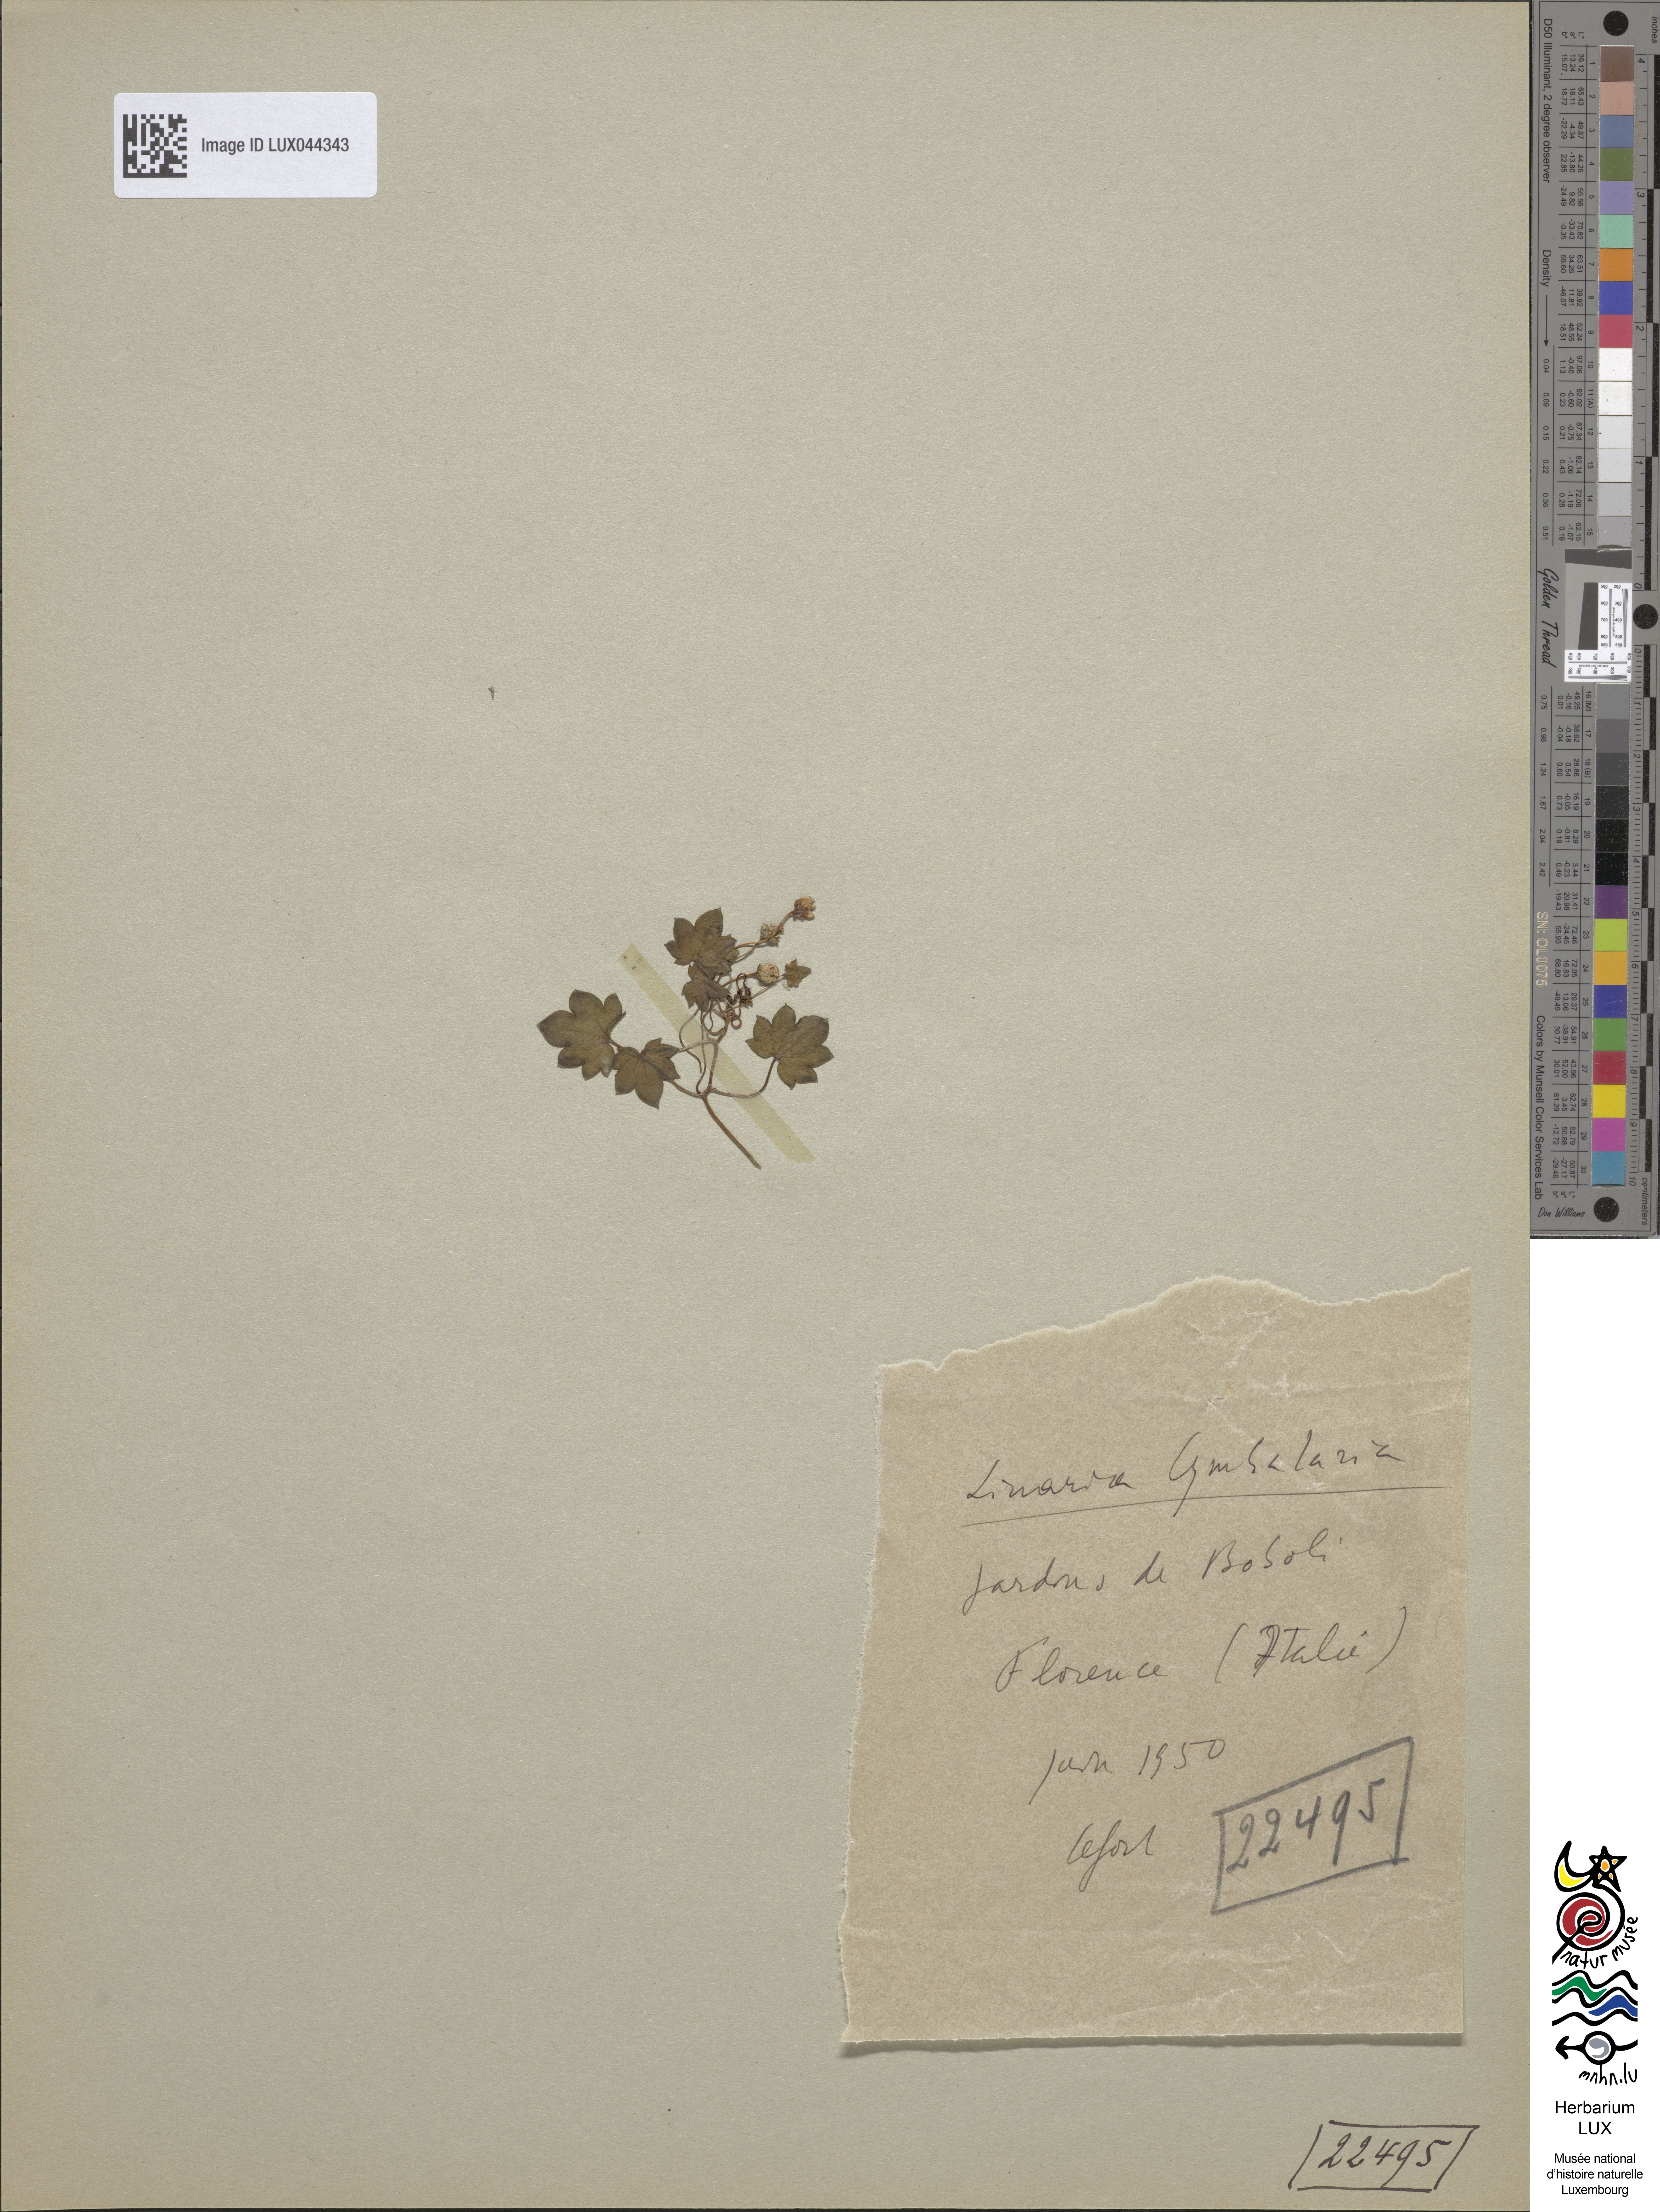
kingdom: Plantae
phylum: Tracheophyta
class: Magnoliopsida
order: Lamiales
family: Plantaginaceae
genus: Cymbalaria
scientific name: Cymbalaria muralis
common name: Ivy-leaved toadflax
